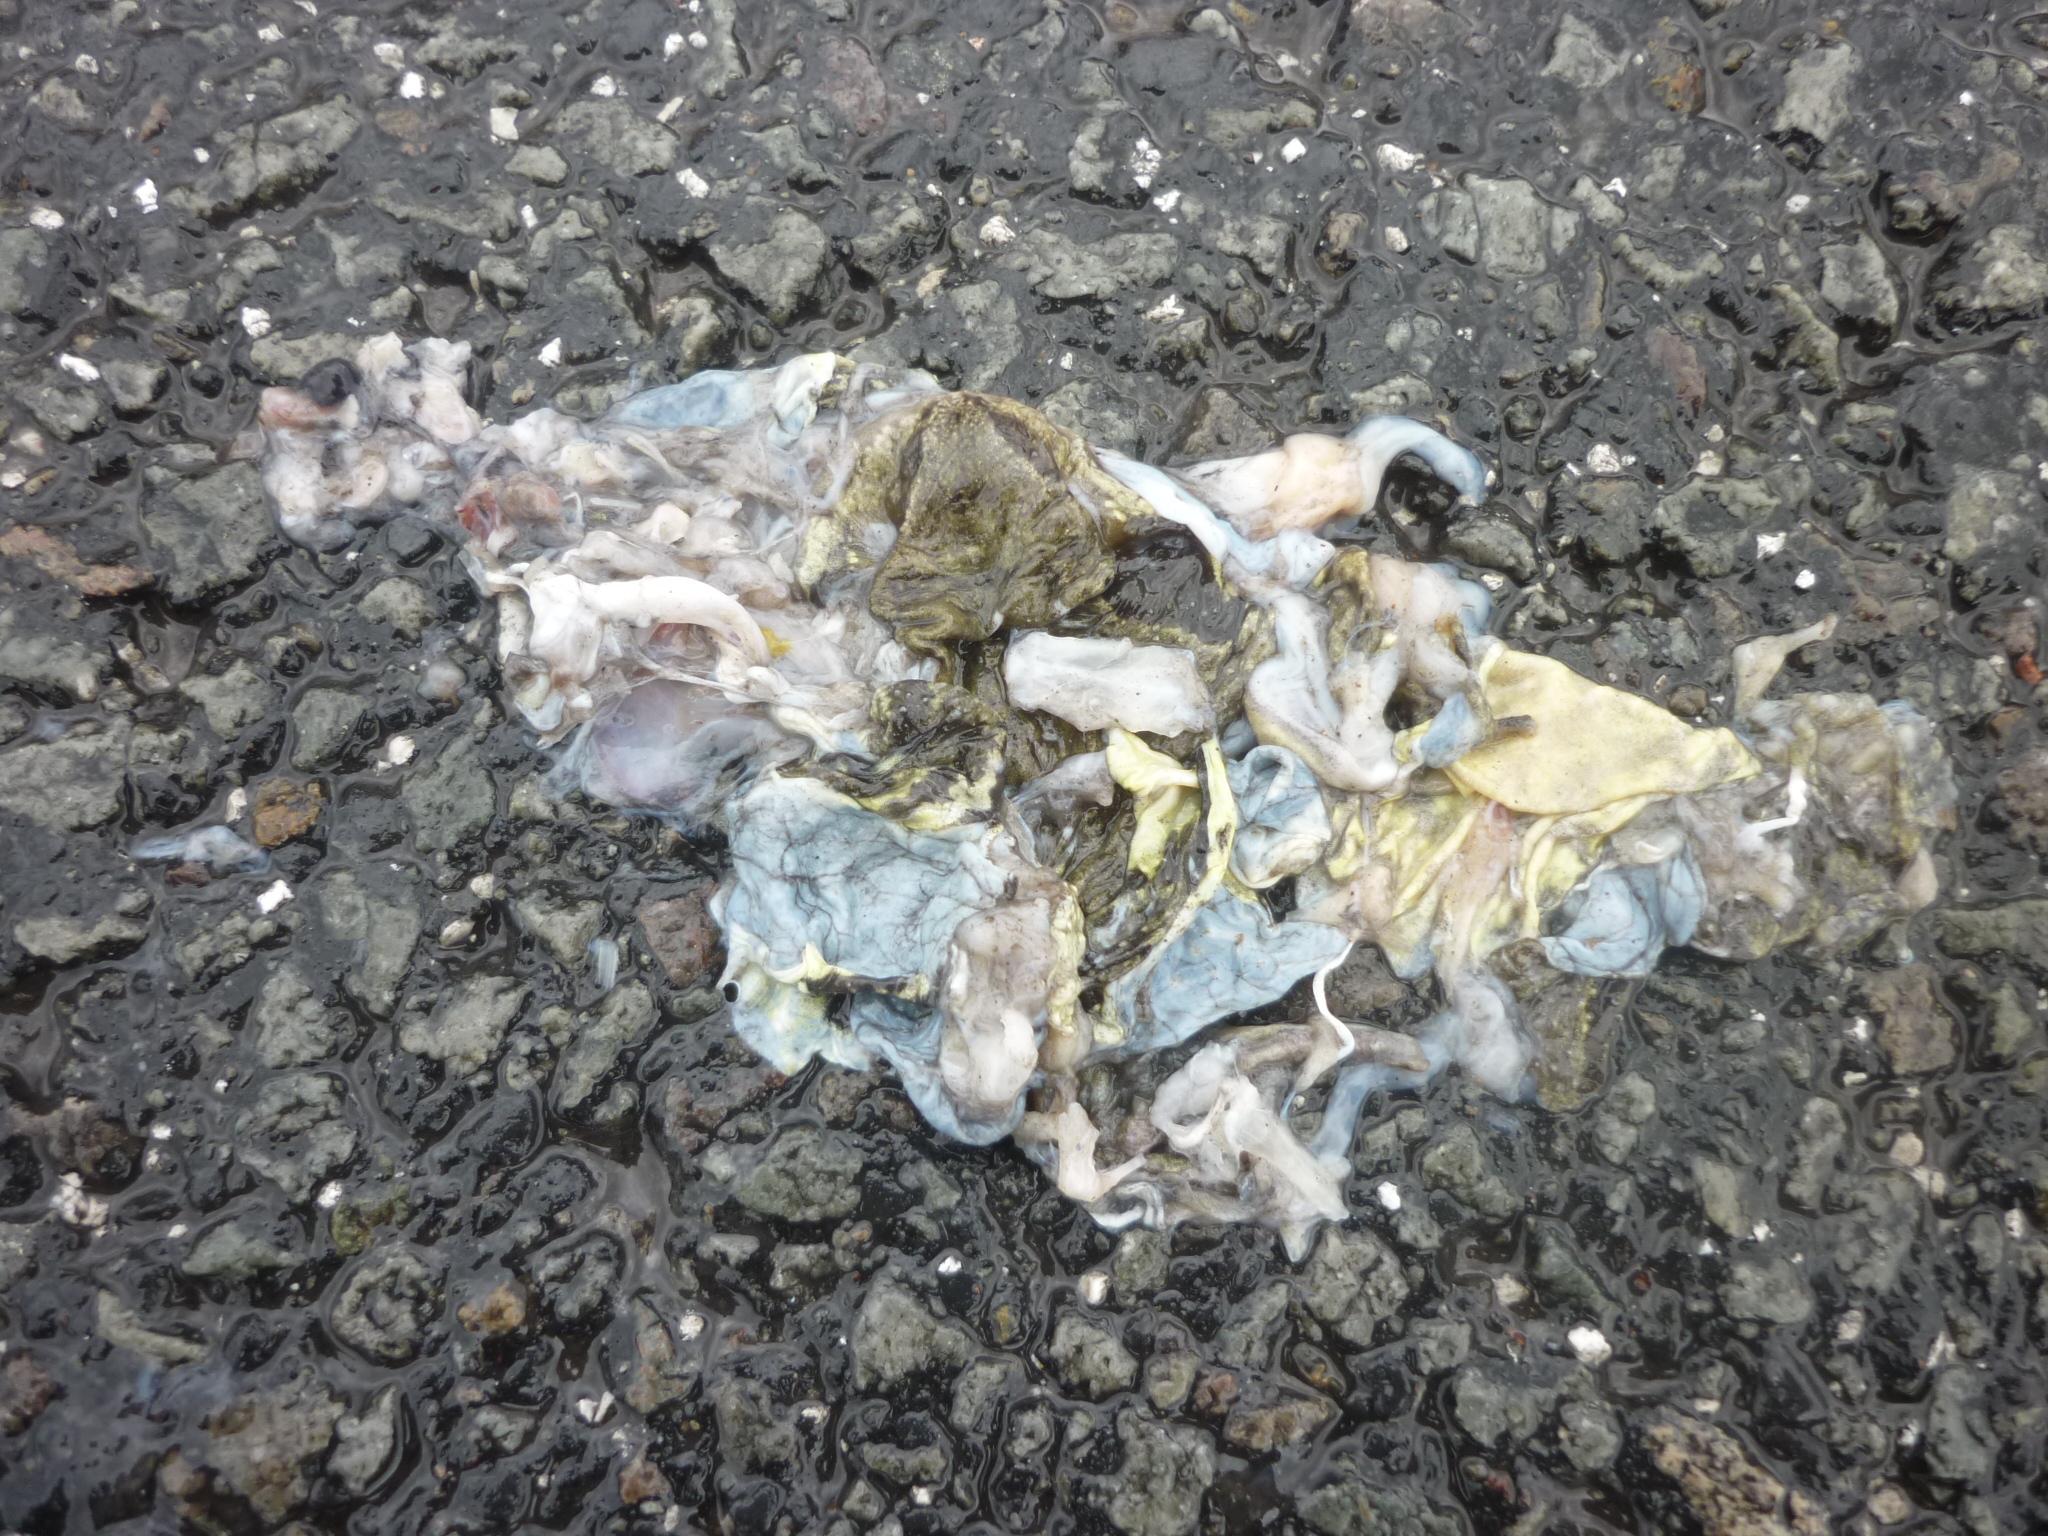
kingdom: Animalia
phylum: Chordata
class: Amphibia
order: Anura
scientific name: Anura
